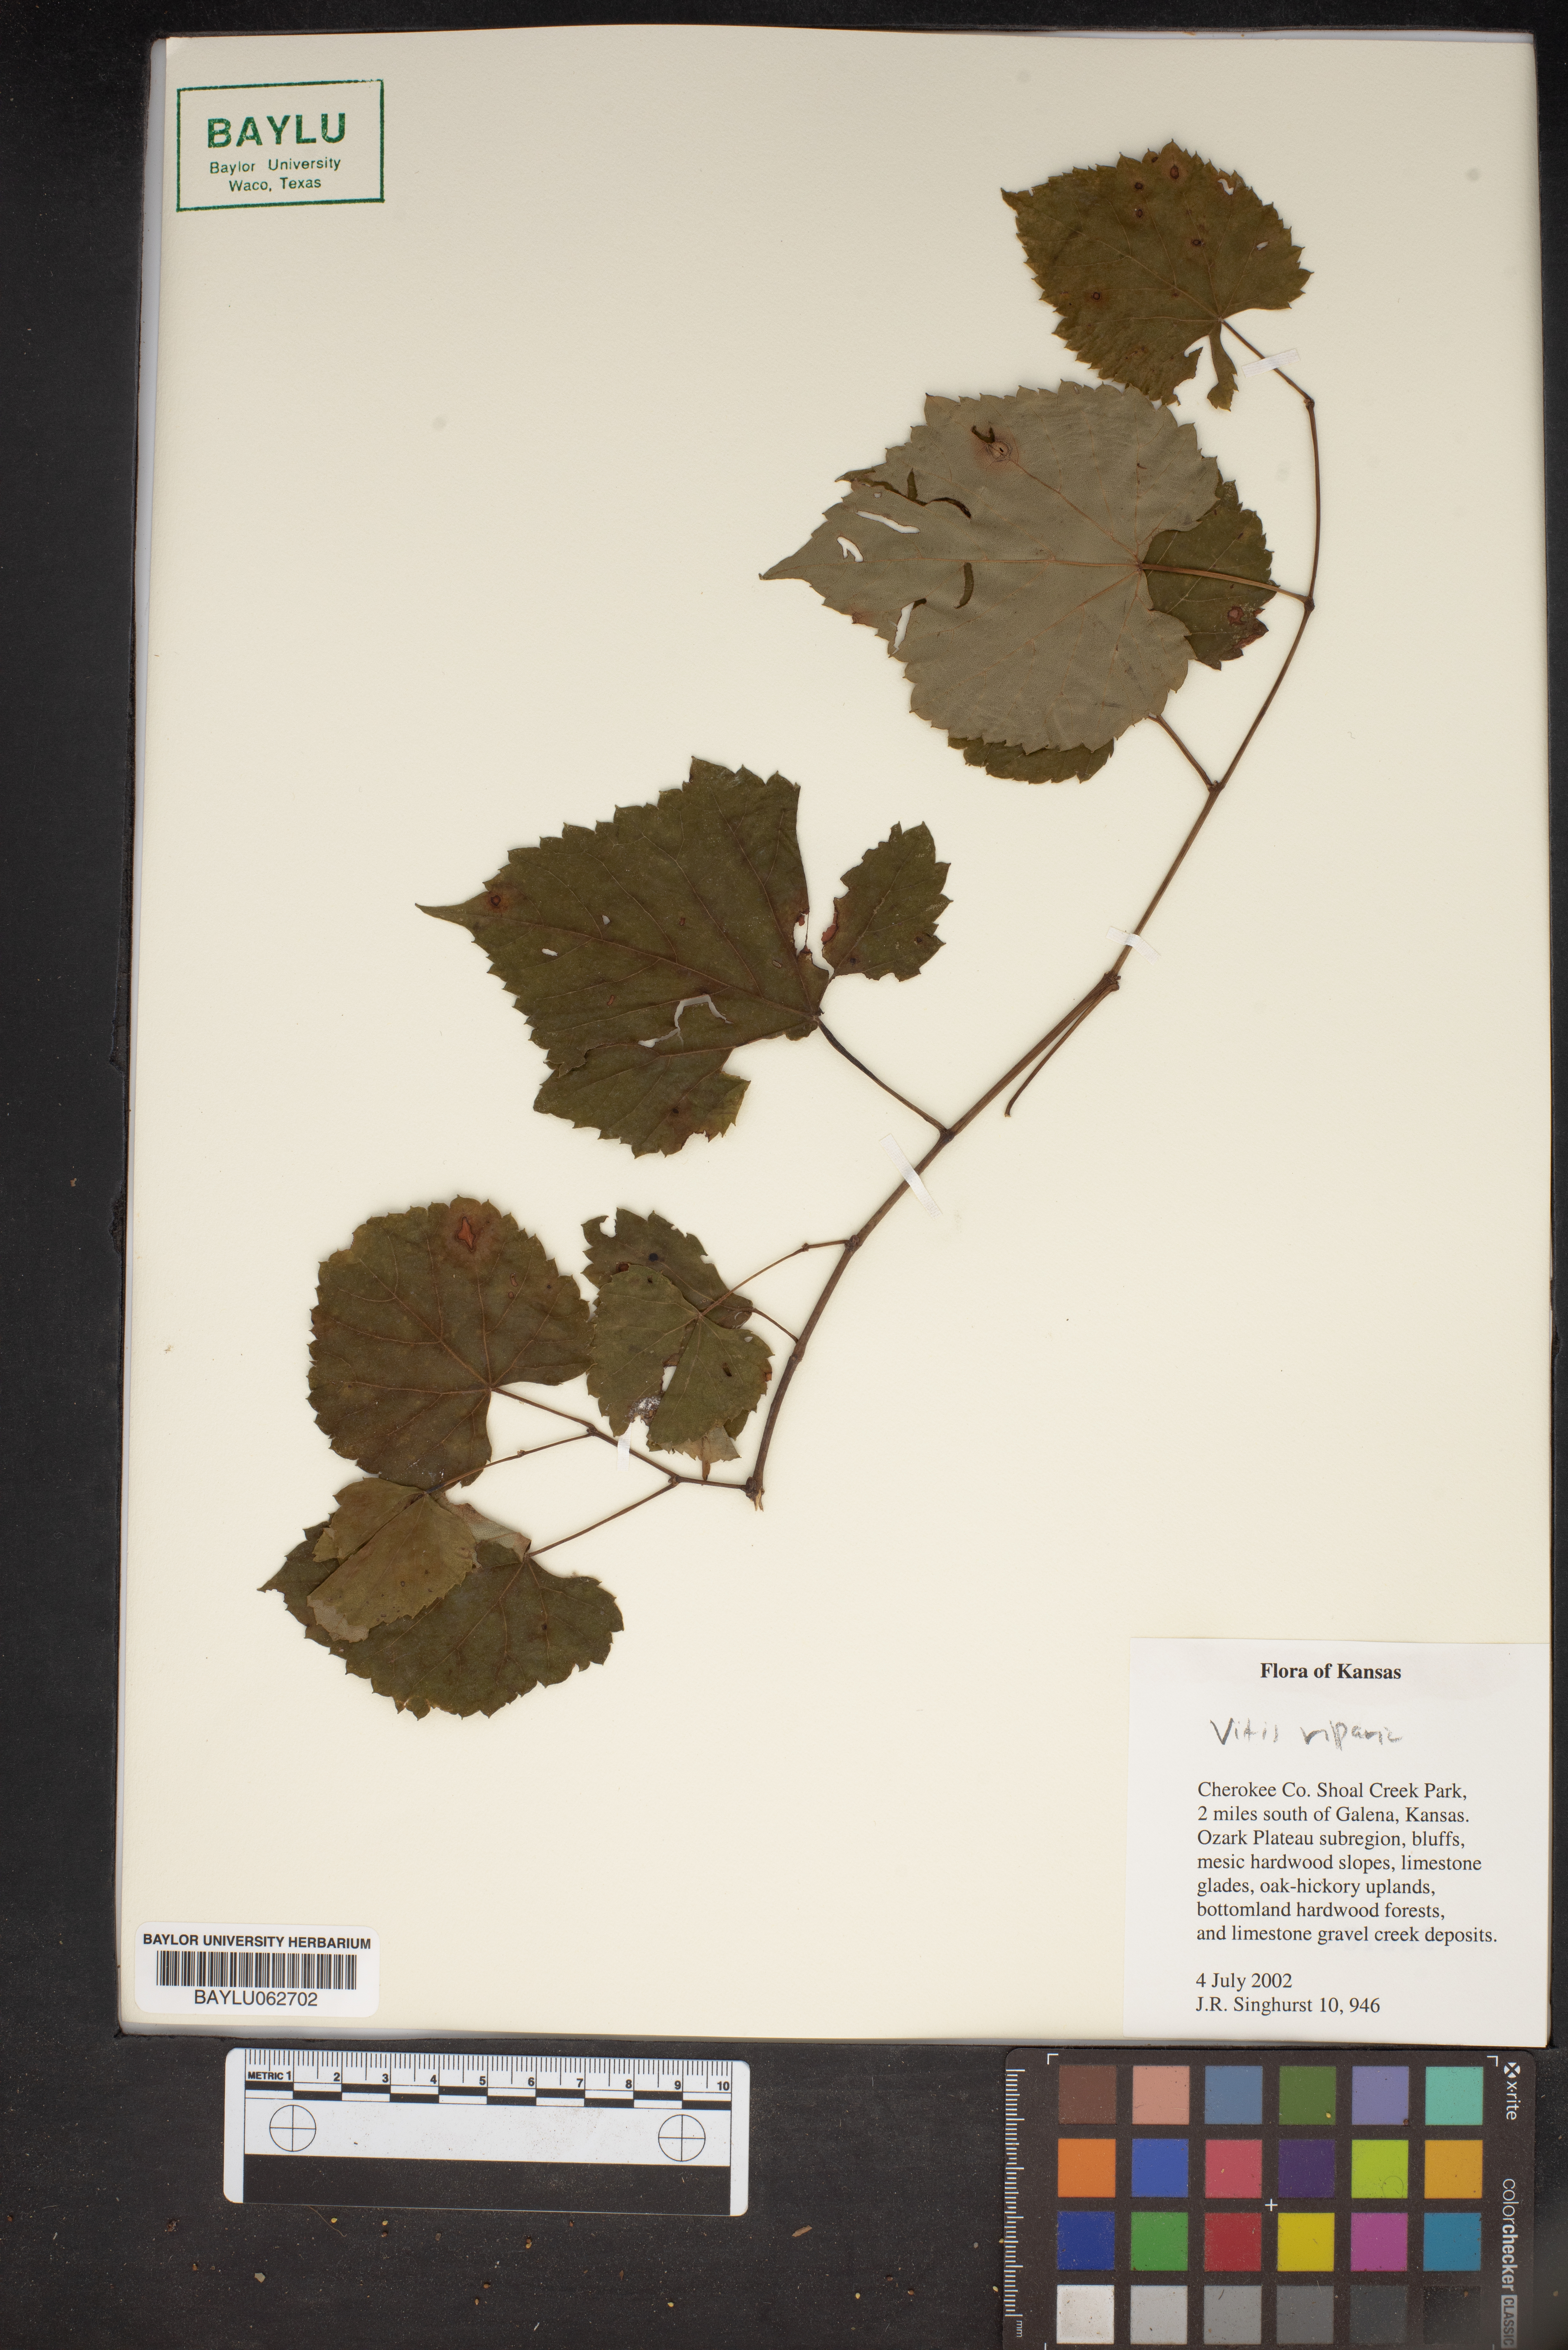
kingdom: Plantae
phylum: Tracheophyta
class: Magnoliopsida
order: Vitales
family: Vitaceae
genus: Vitis
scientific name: Vitis riparia
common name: Frost grape
